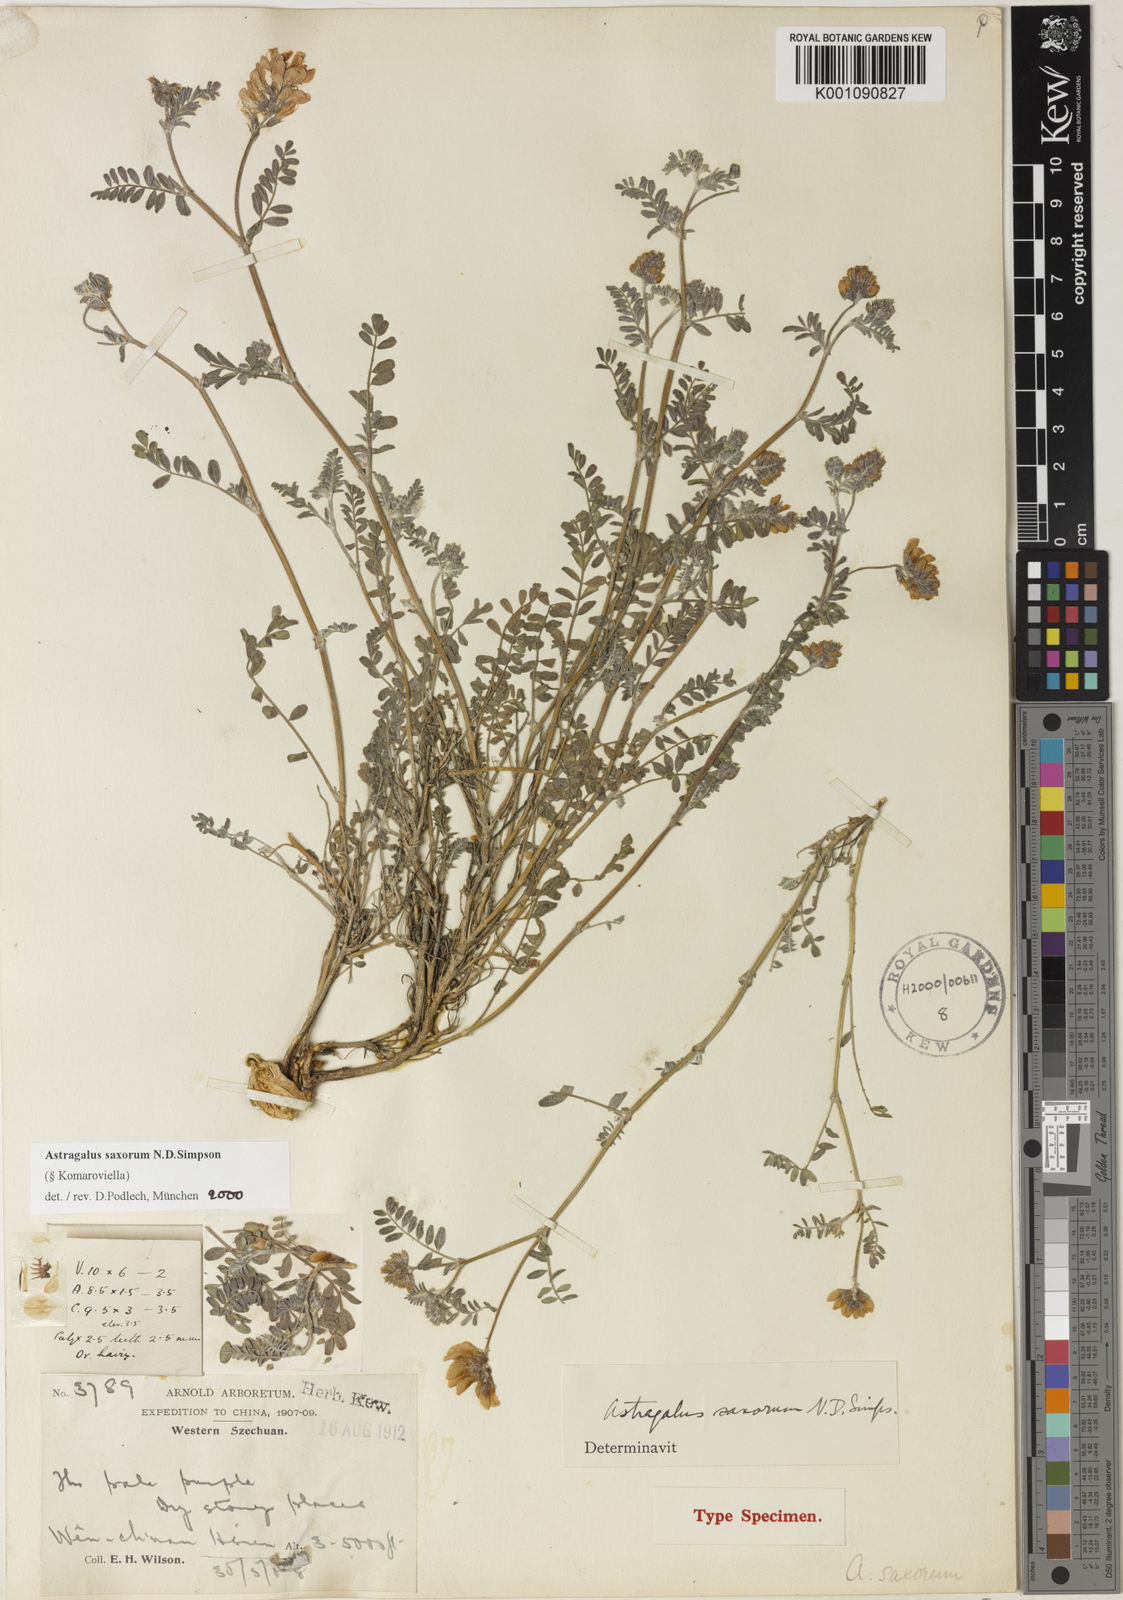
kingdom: Plantae
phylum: Tracheophyta
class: Magnoliopsida
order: Fabales
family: Fabaceae
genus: Astragalus
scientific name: Astragalus
